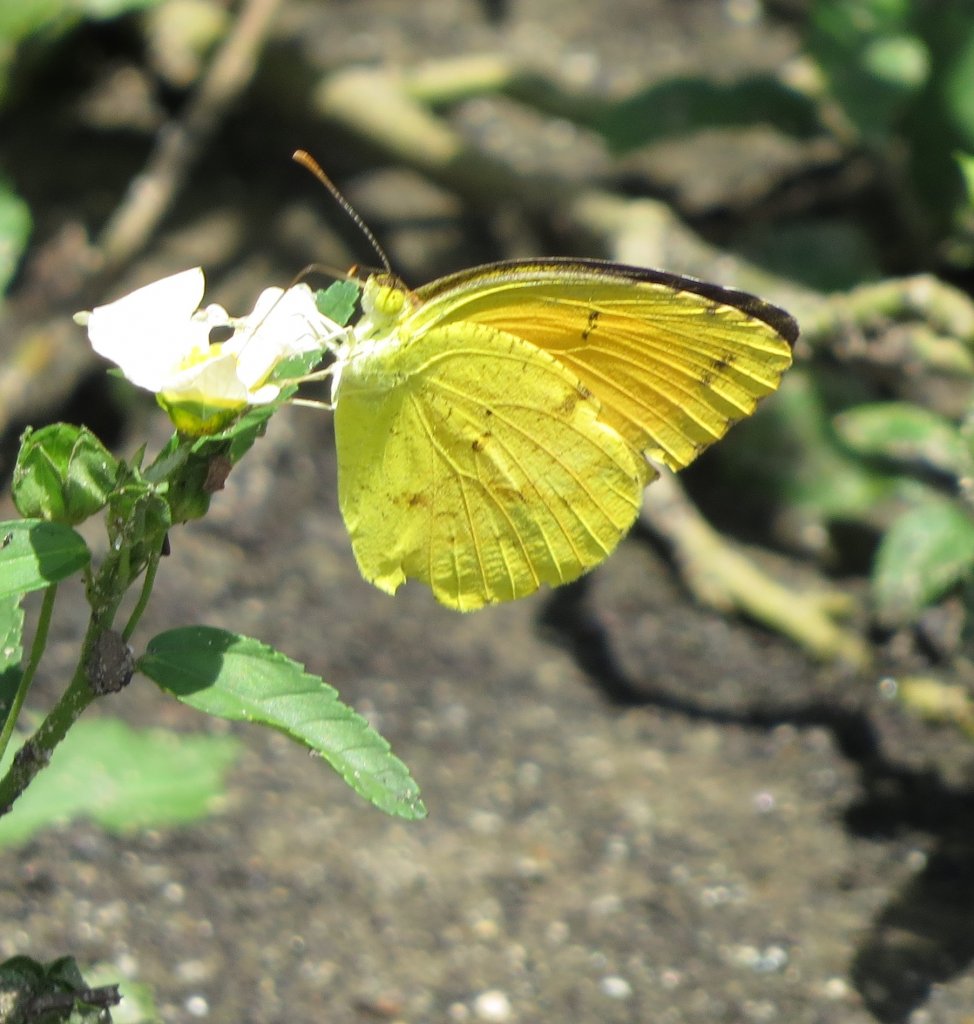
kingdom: Animalia
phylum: Arthropoda
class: Insecta
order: Lepidoptera
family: Pieridae
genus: Abaeis
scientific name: Abaeis nicippe
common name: Sleepy Orange
